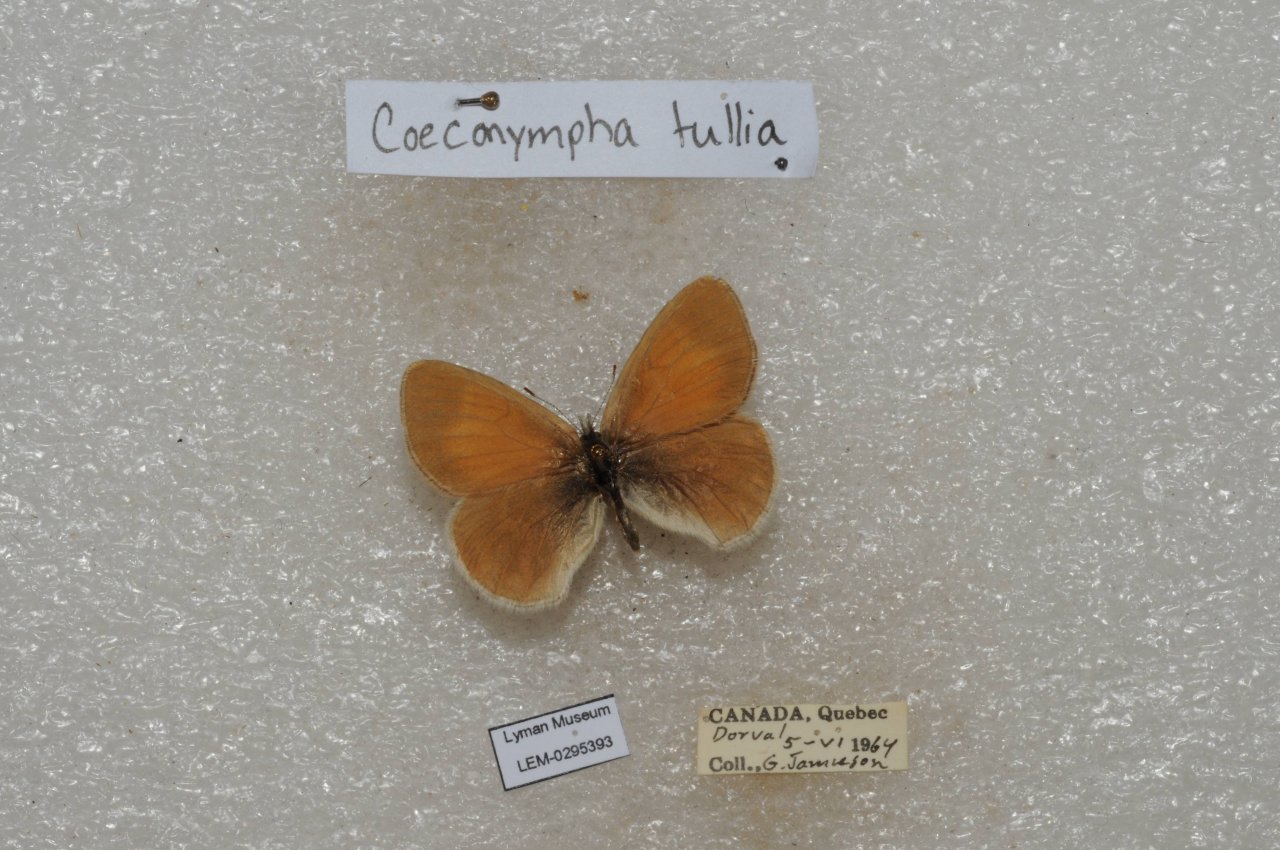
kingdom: Animalia
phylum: Arthropoda
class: Insecta
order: Lepidoptera
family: Nymphalidae
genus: Coenonympha
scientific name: Coenonympha tullia
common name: Large Heath
